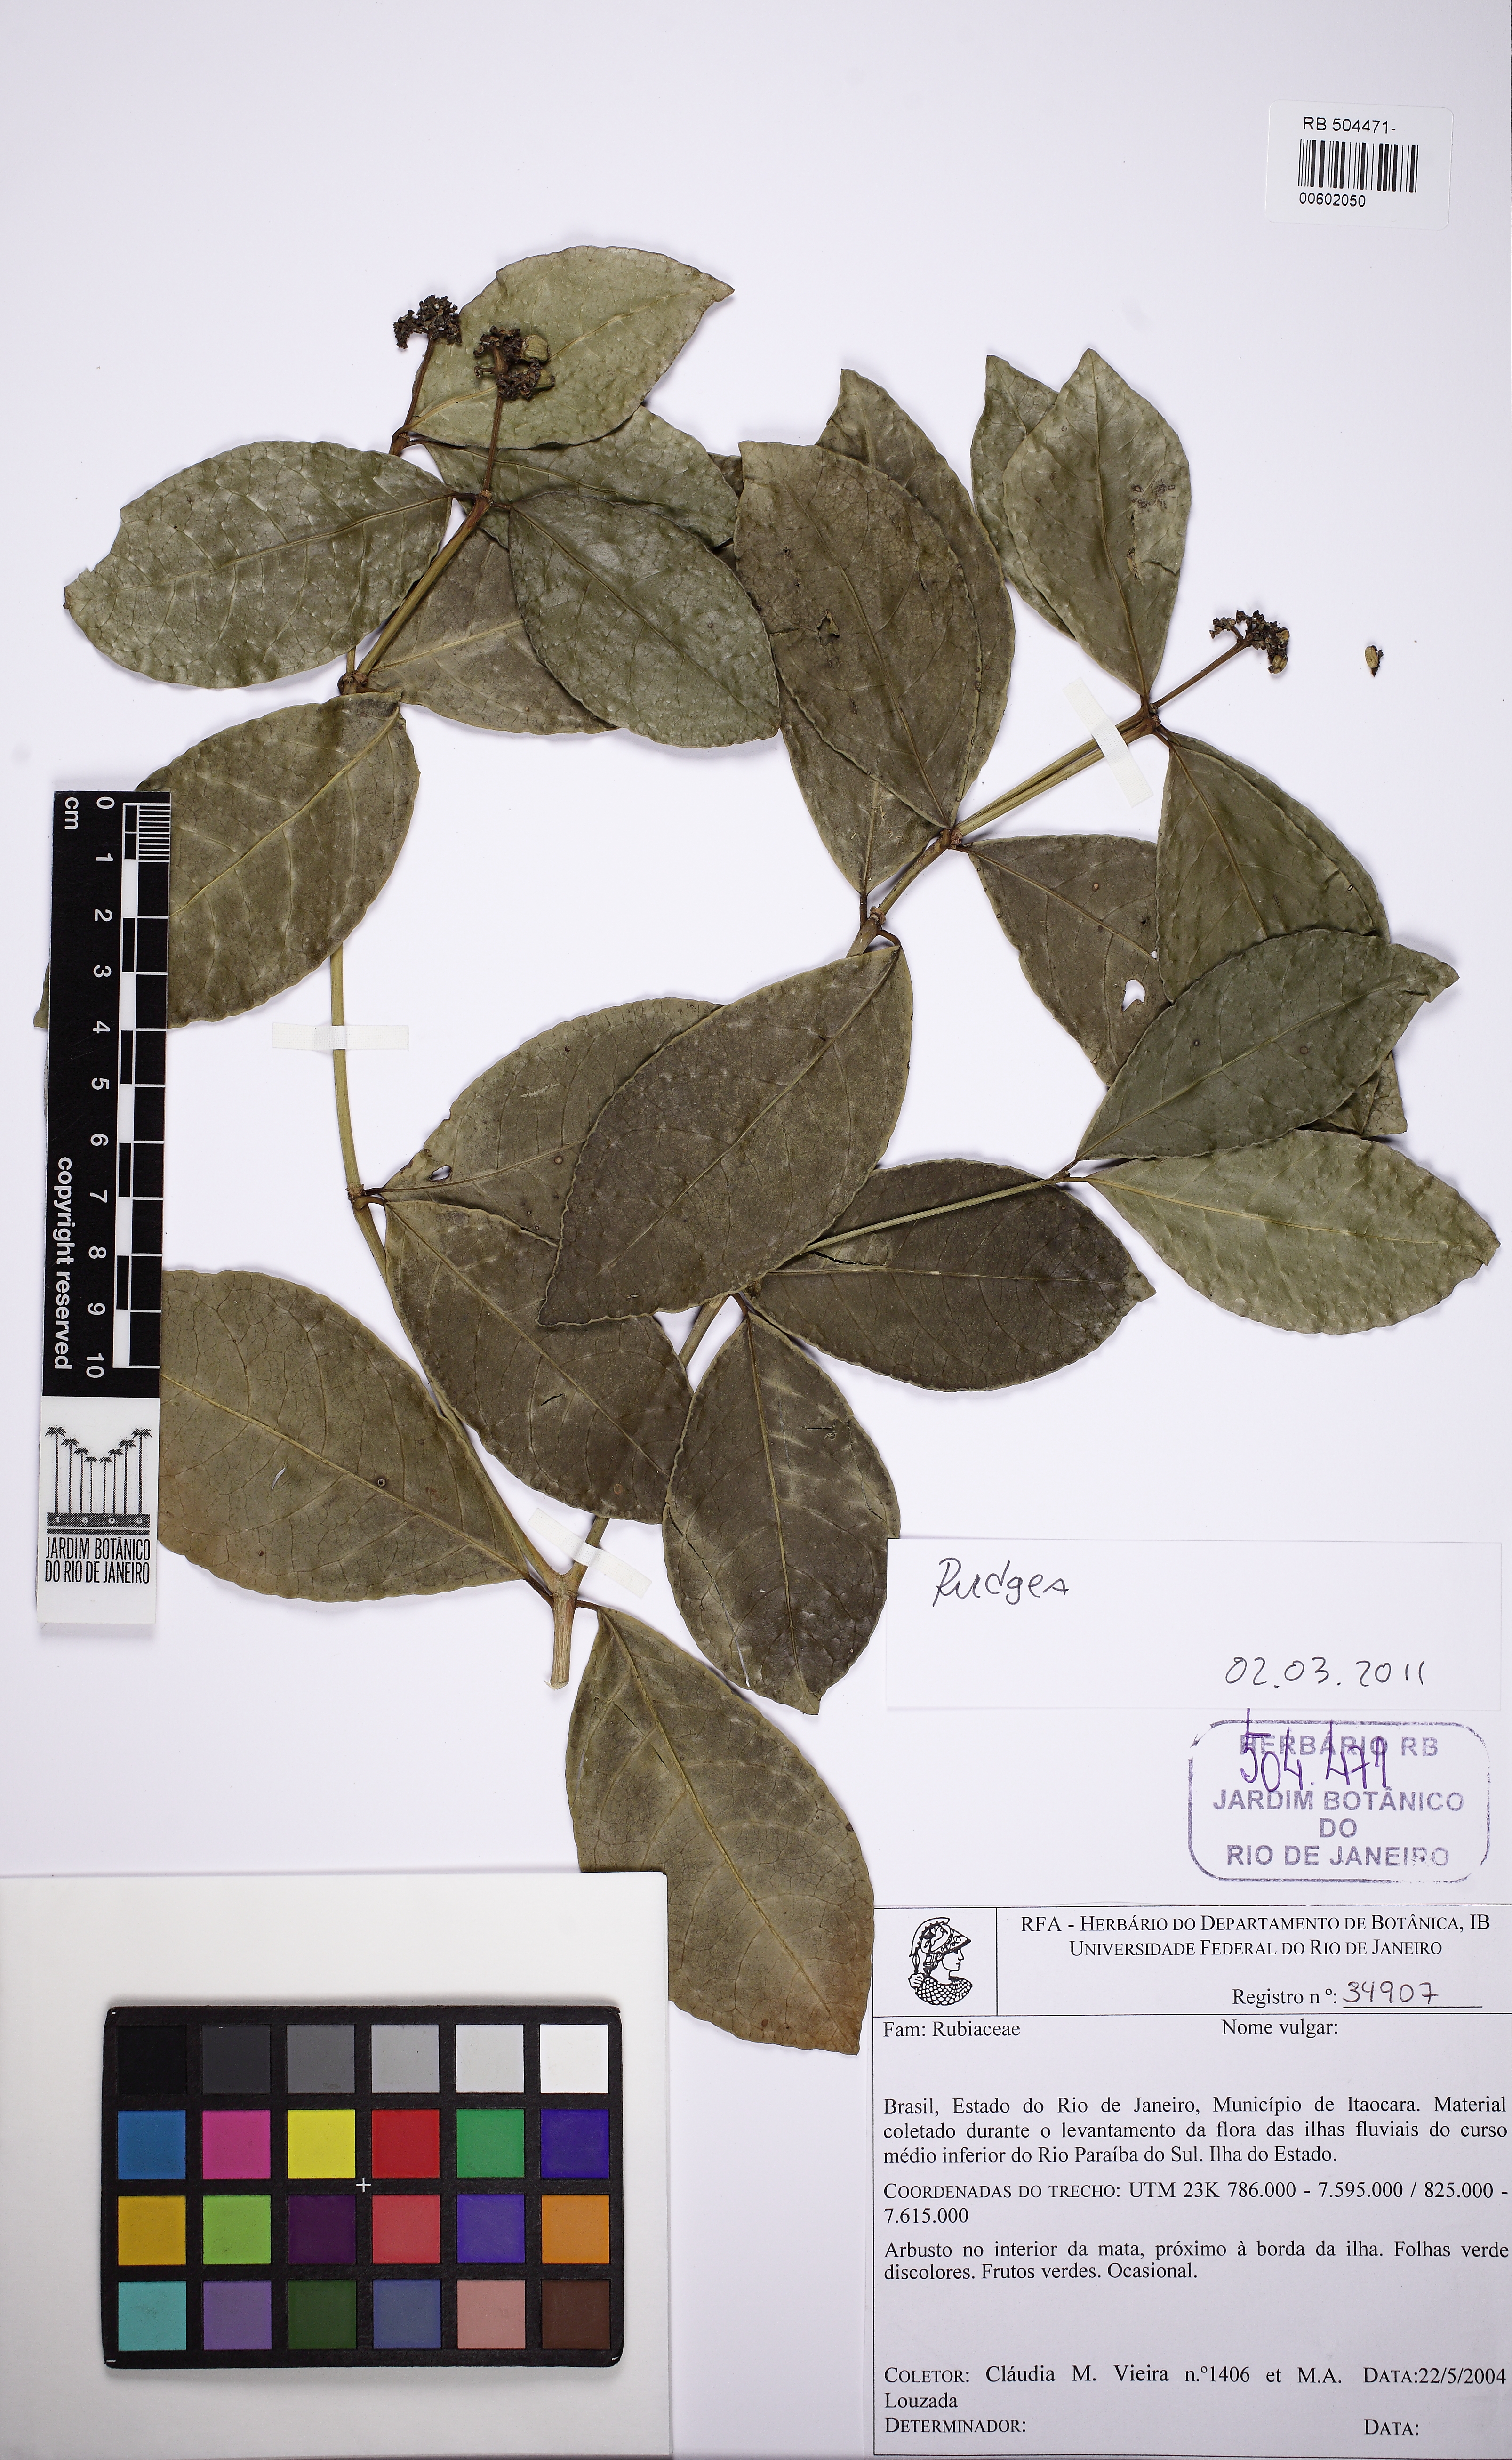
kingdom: Plantae
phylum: Tracheophyta
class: Magnoliopsida
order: Gentianales
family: Rubiaceae
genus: Rudgea
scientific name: Rudgea coronata
